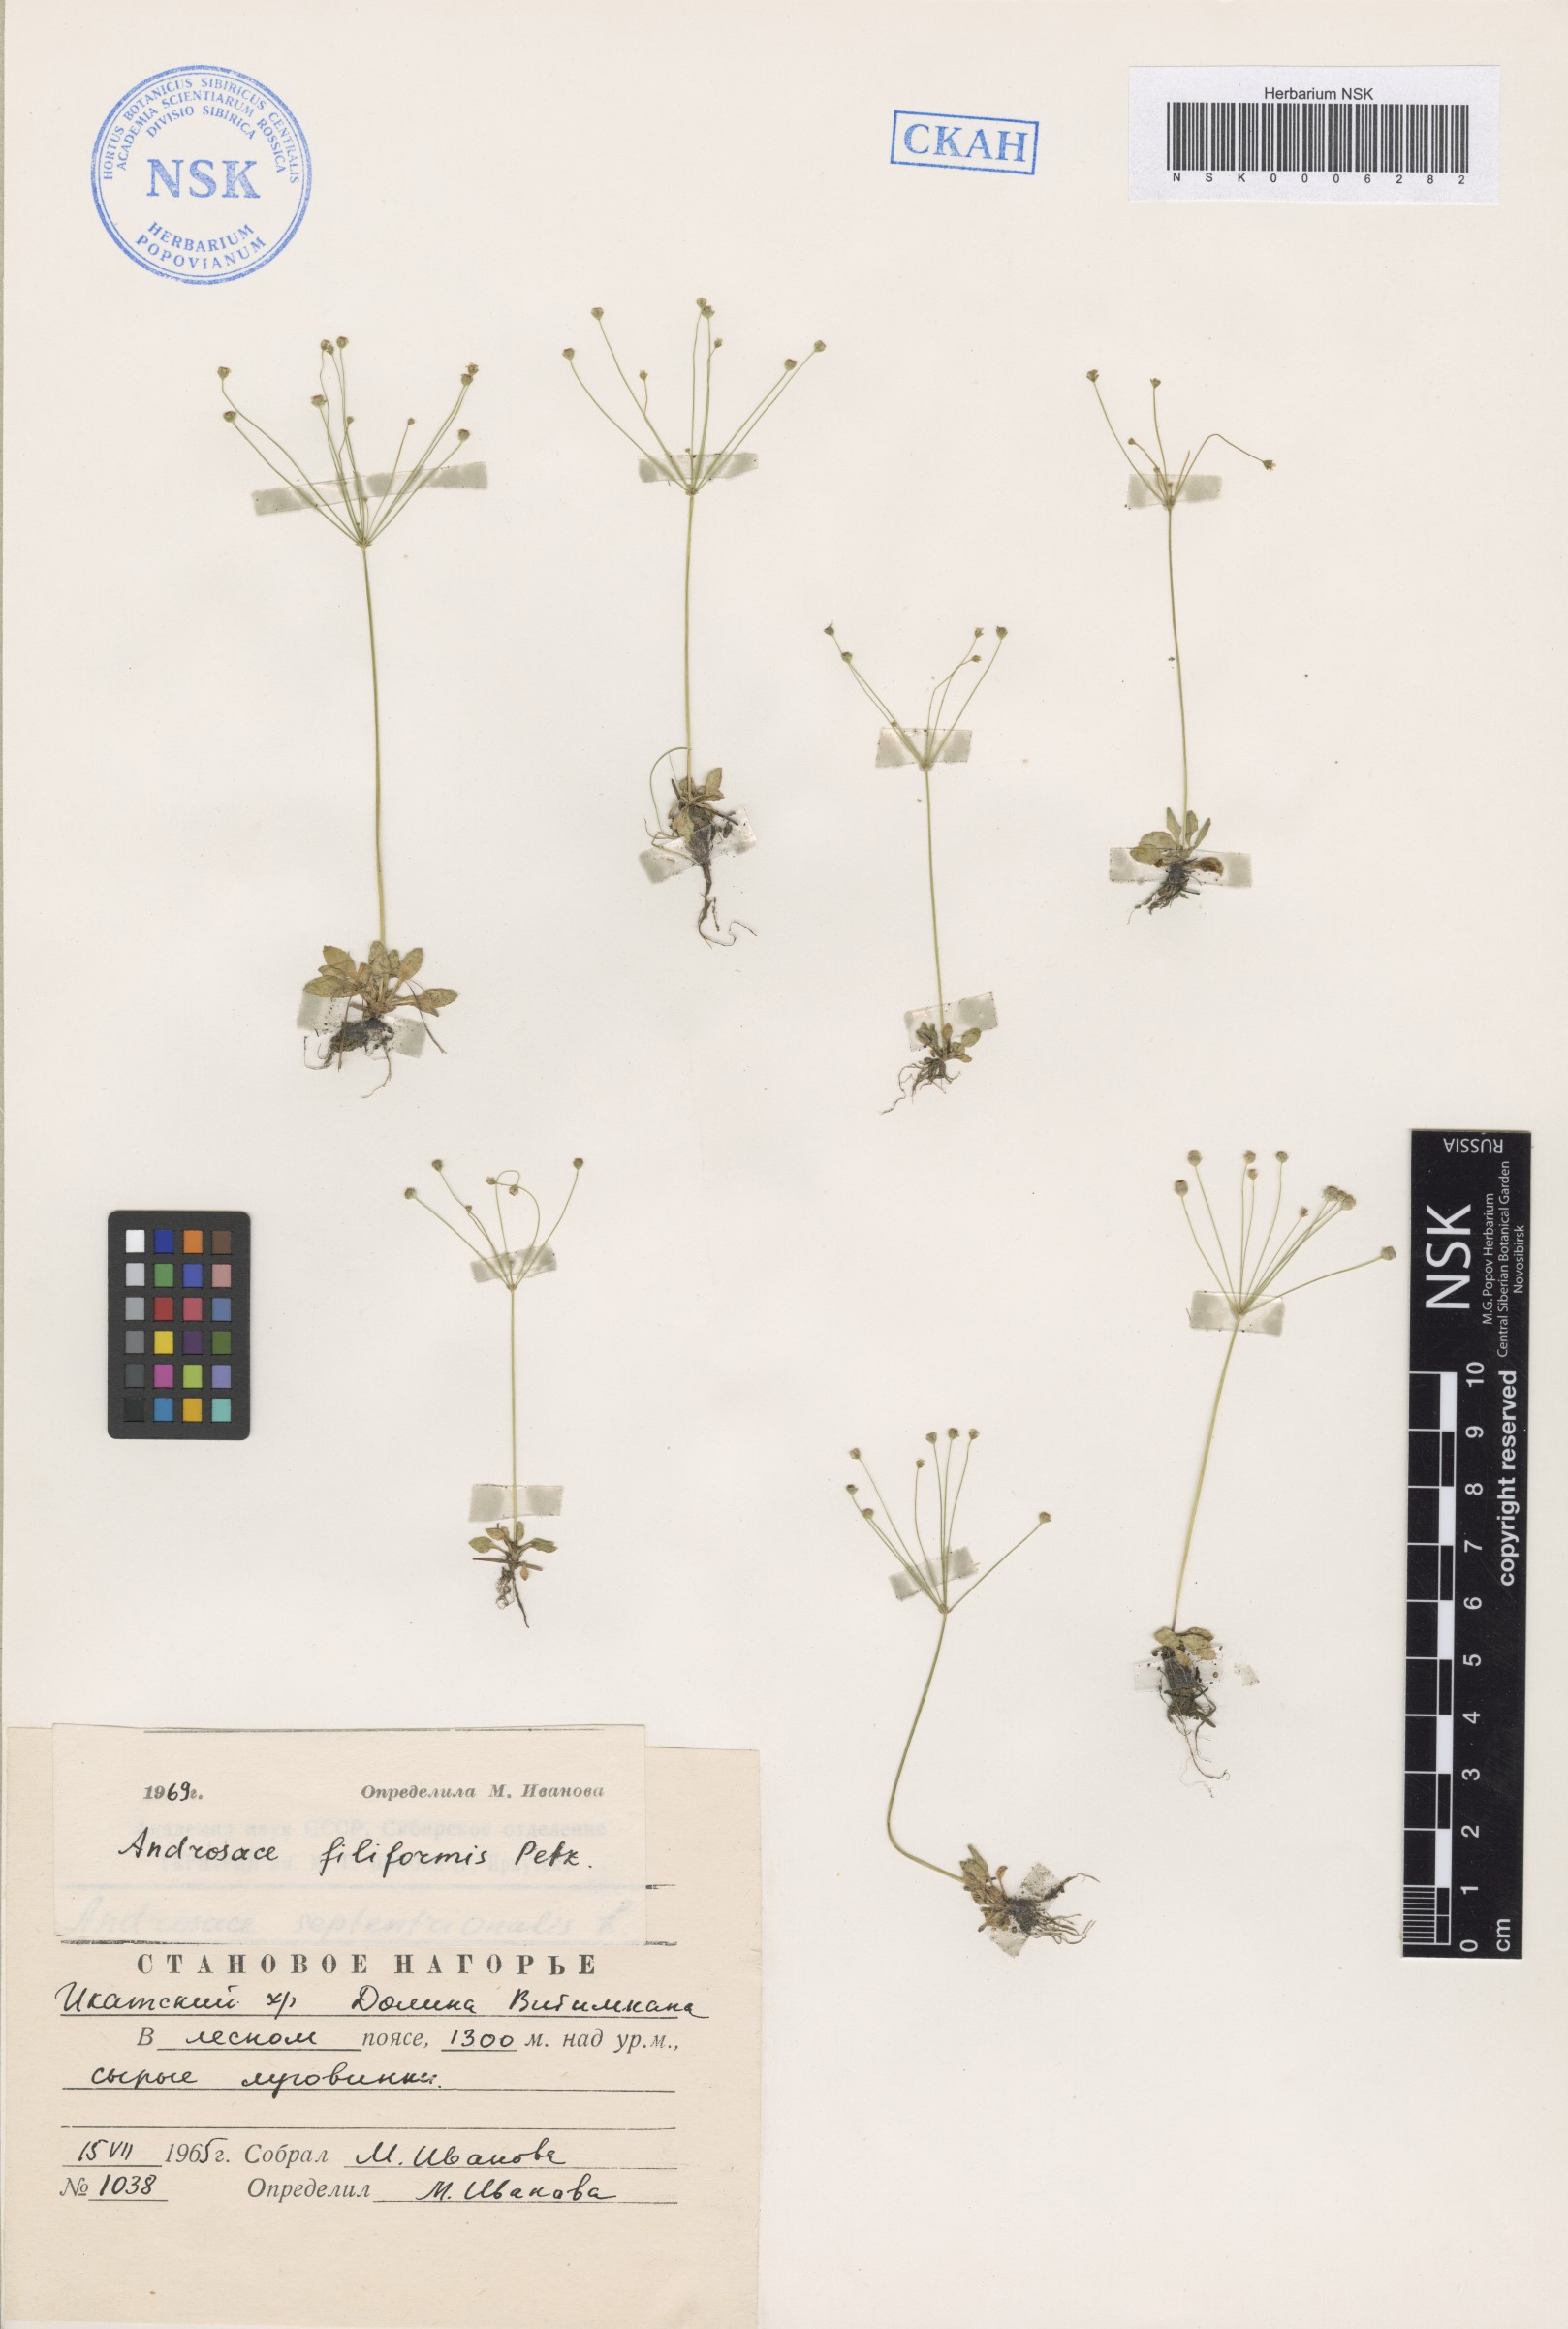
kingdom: Plantae
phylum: Tracheophyta
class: Magnoliopsida
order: Ericales
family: Primulaceae
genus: Androsace
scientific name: Androsace filiformis
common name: Filiform rock jasmine
